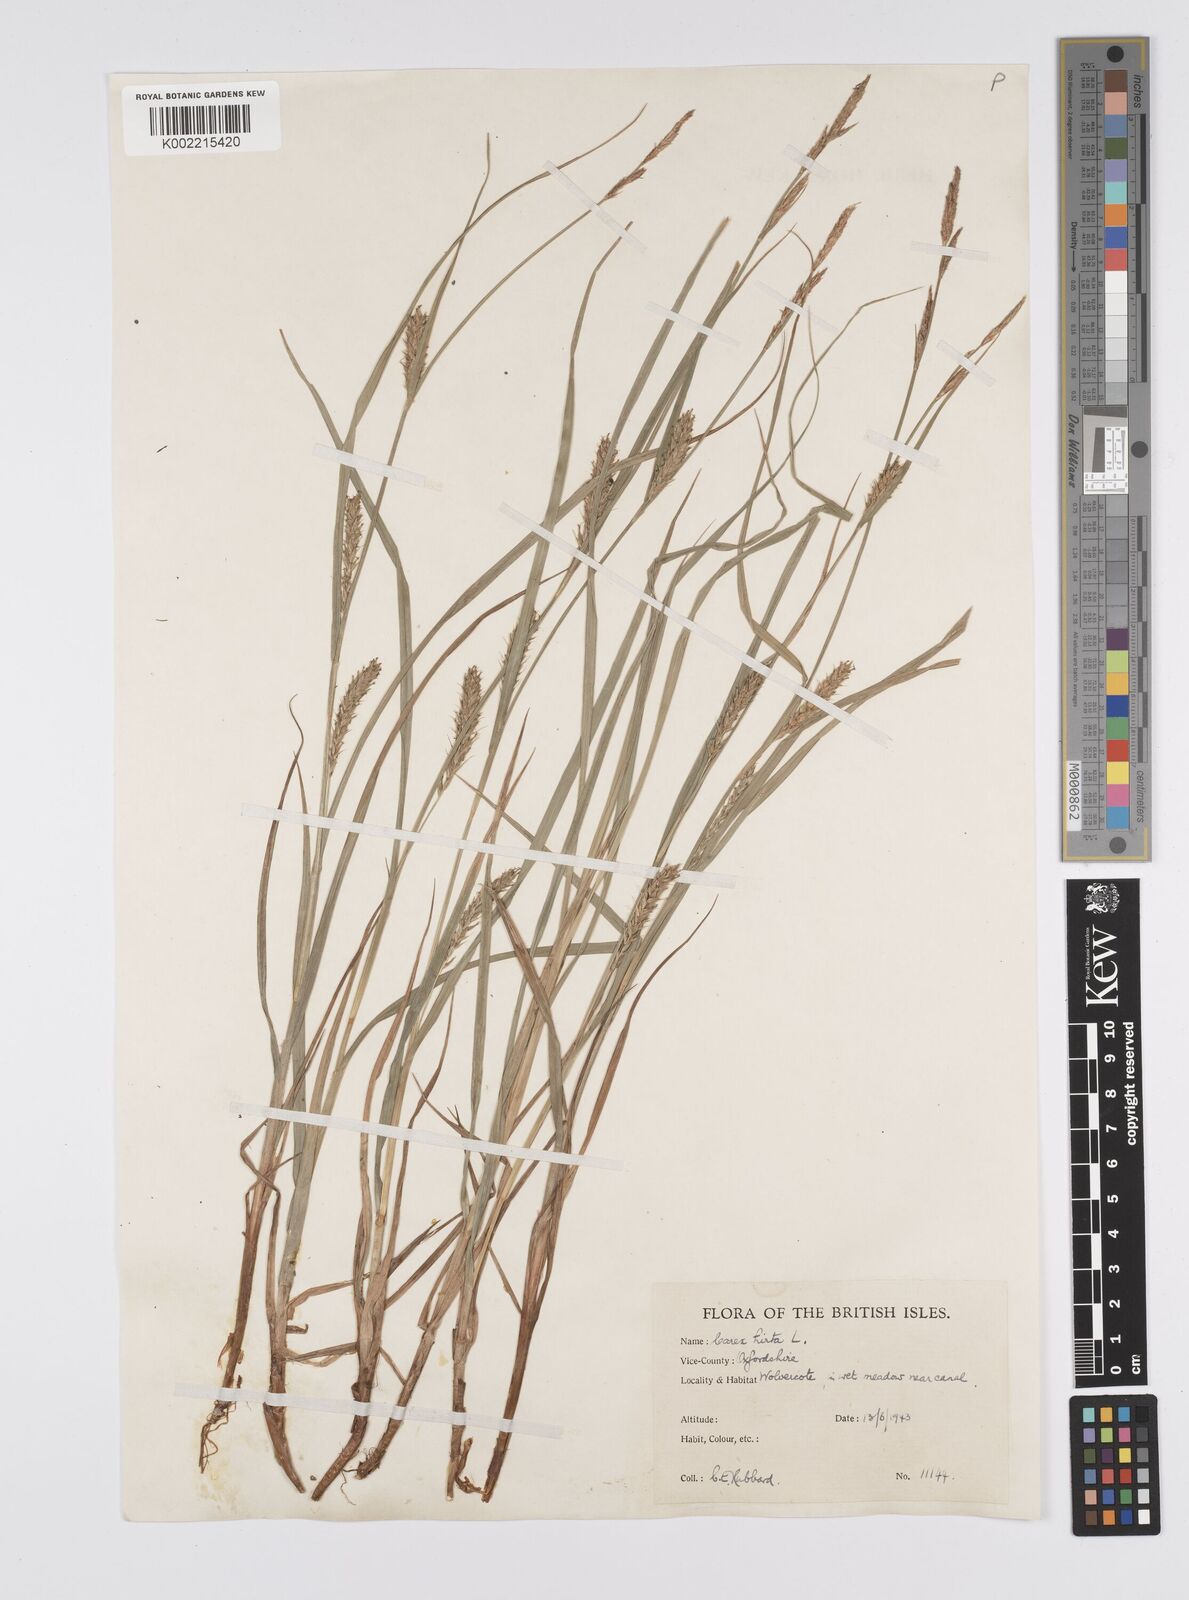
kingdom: Plantae
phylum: Tracheophyta
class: Liliopsida
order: Poales
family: Cyperaceae
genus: Carex
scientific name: Carex hirta
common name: Hairy sedge
